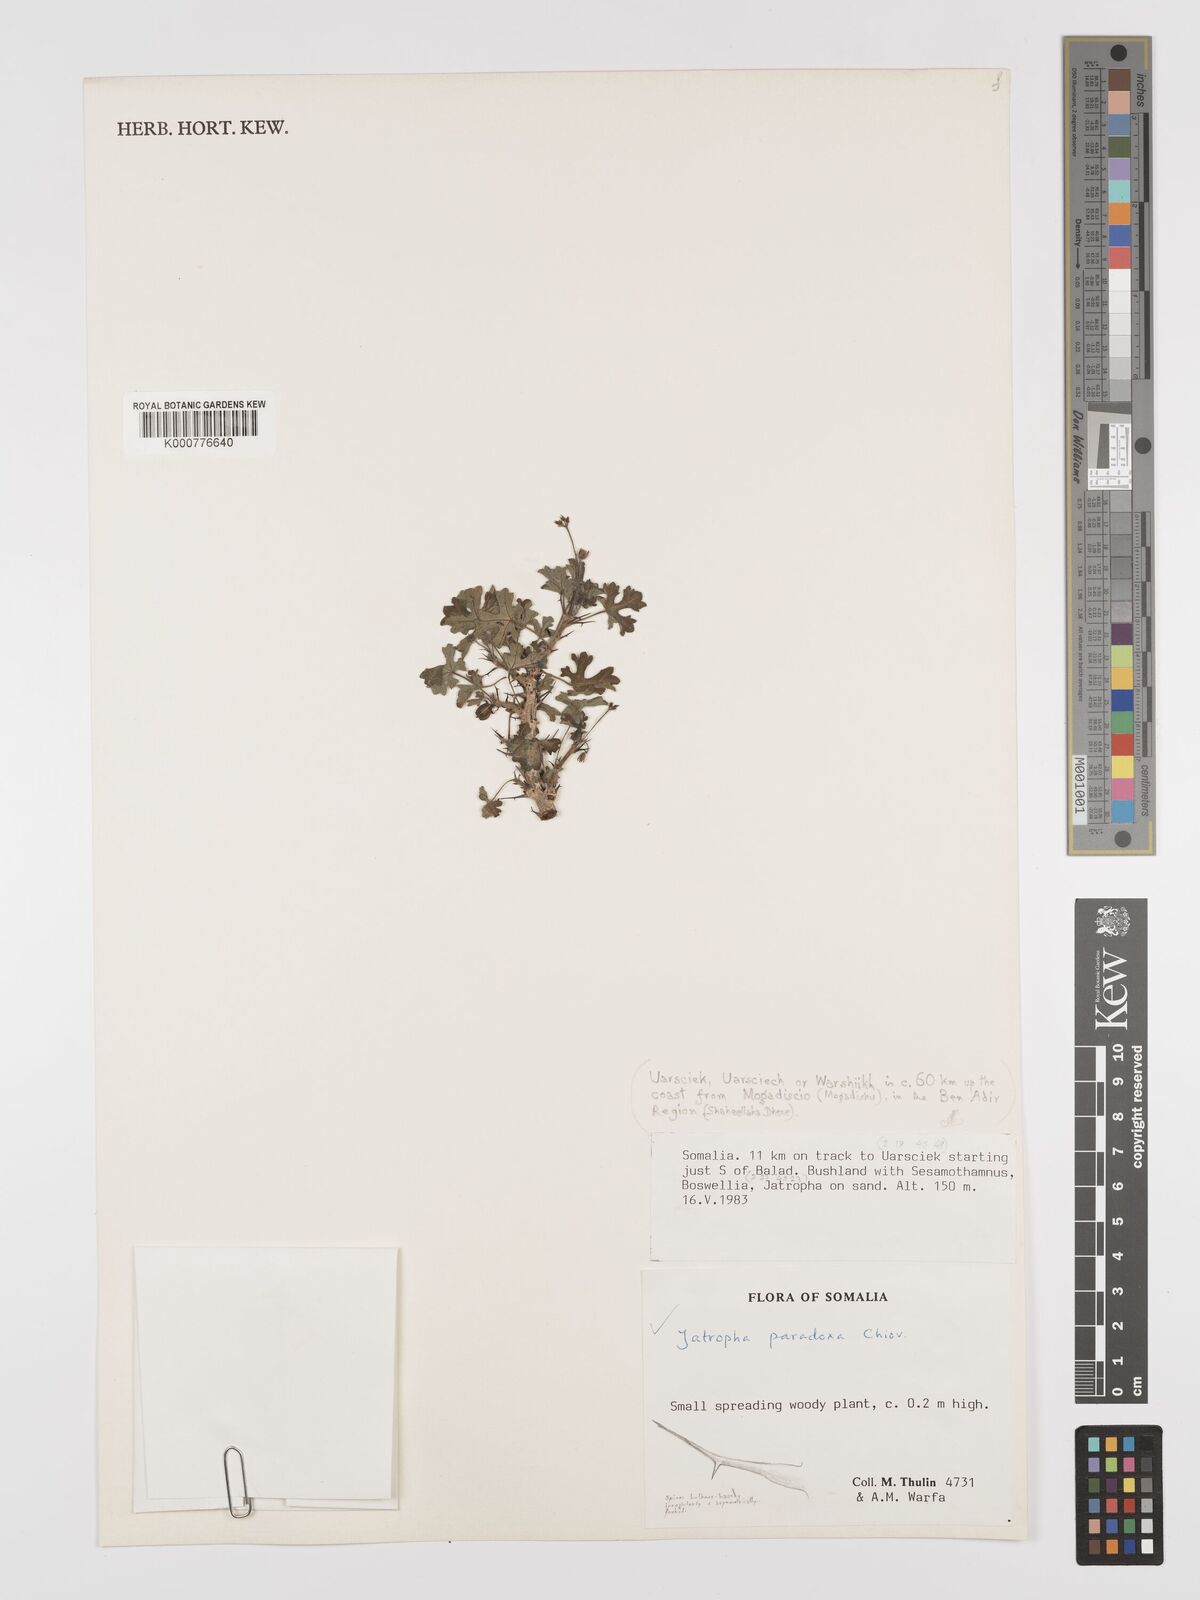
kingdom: Plantae
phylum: Tracheophyta
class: Magnoliopsida
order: Malpighiales
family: Euphorbiaceae
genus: Jatropha
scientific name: Jatropha paradoxa
